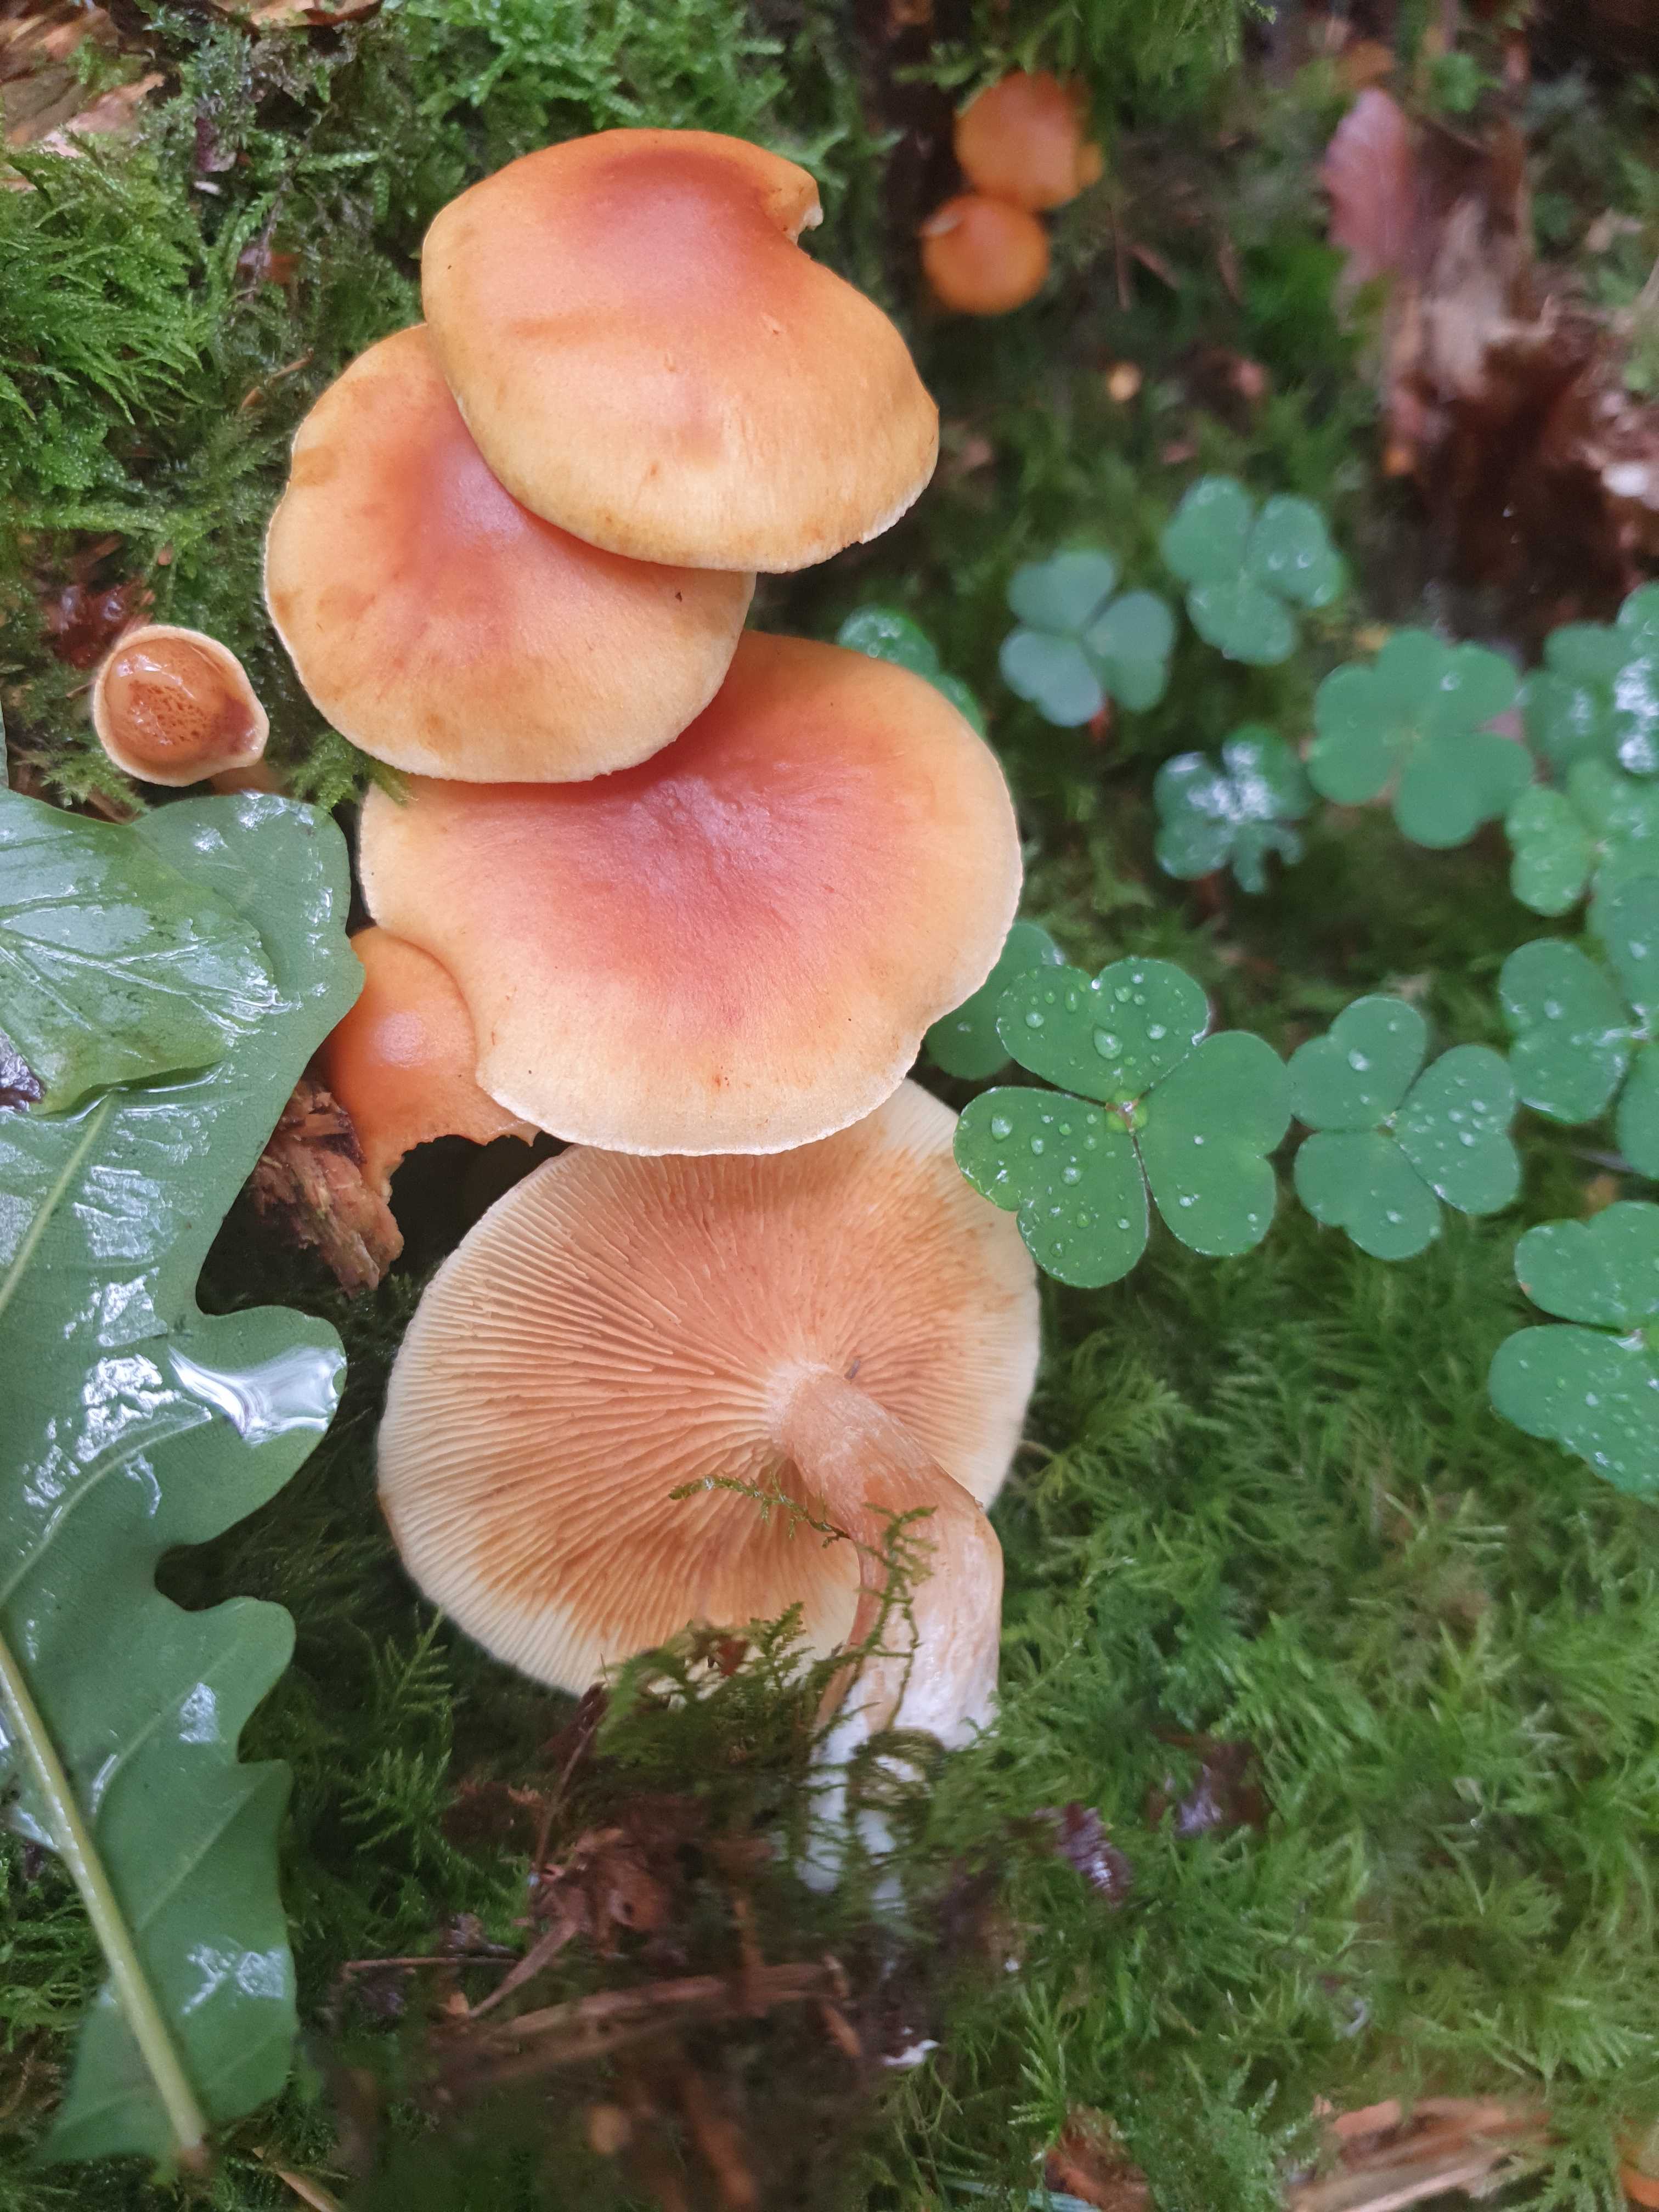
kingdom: Fungi
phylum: Basidiomycota
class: Agaricomycetes
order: Agaricales
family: Hymenogastraceae
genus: Gymnopilus
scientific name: Gymnopilus penetrans
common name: plettet flammehat
